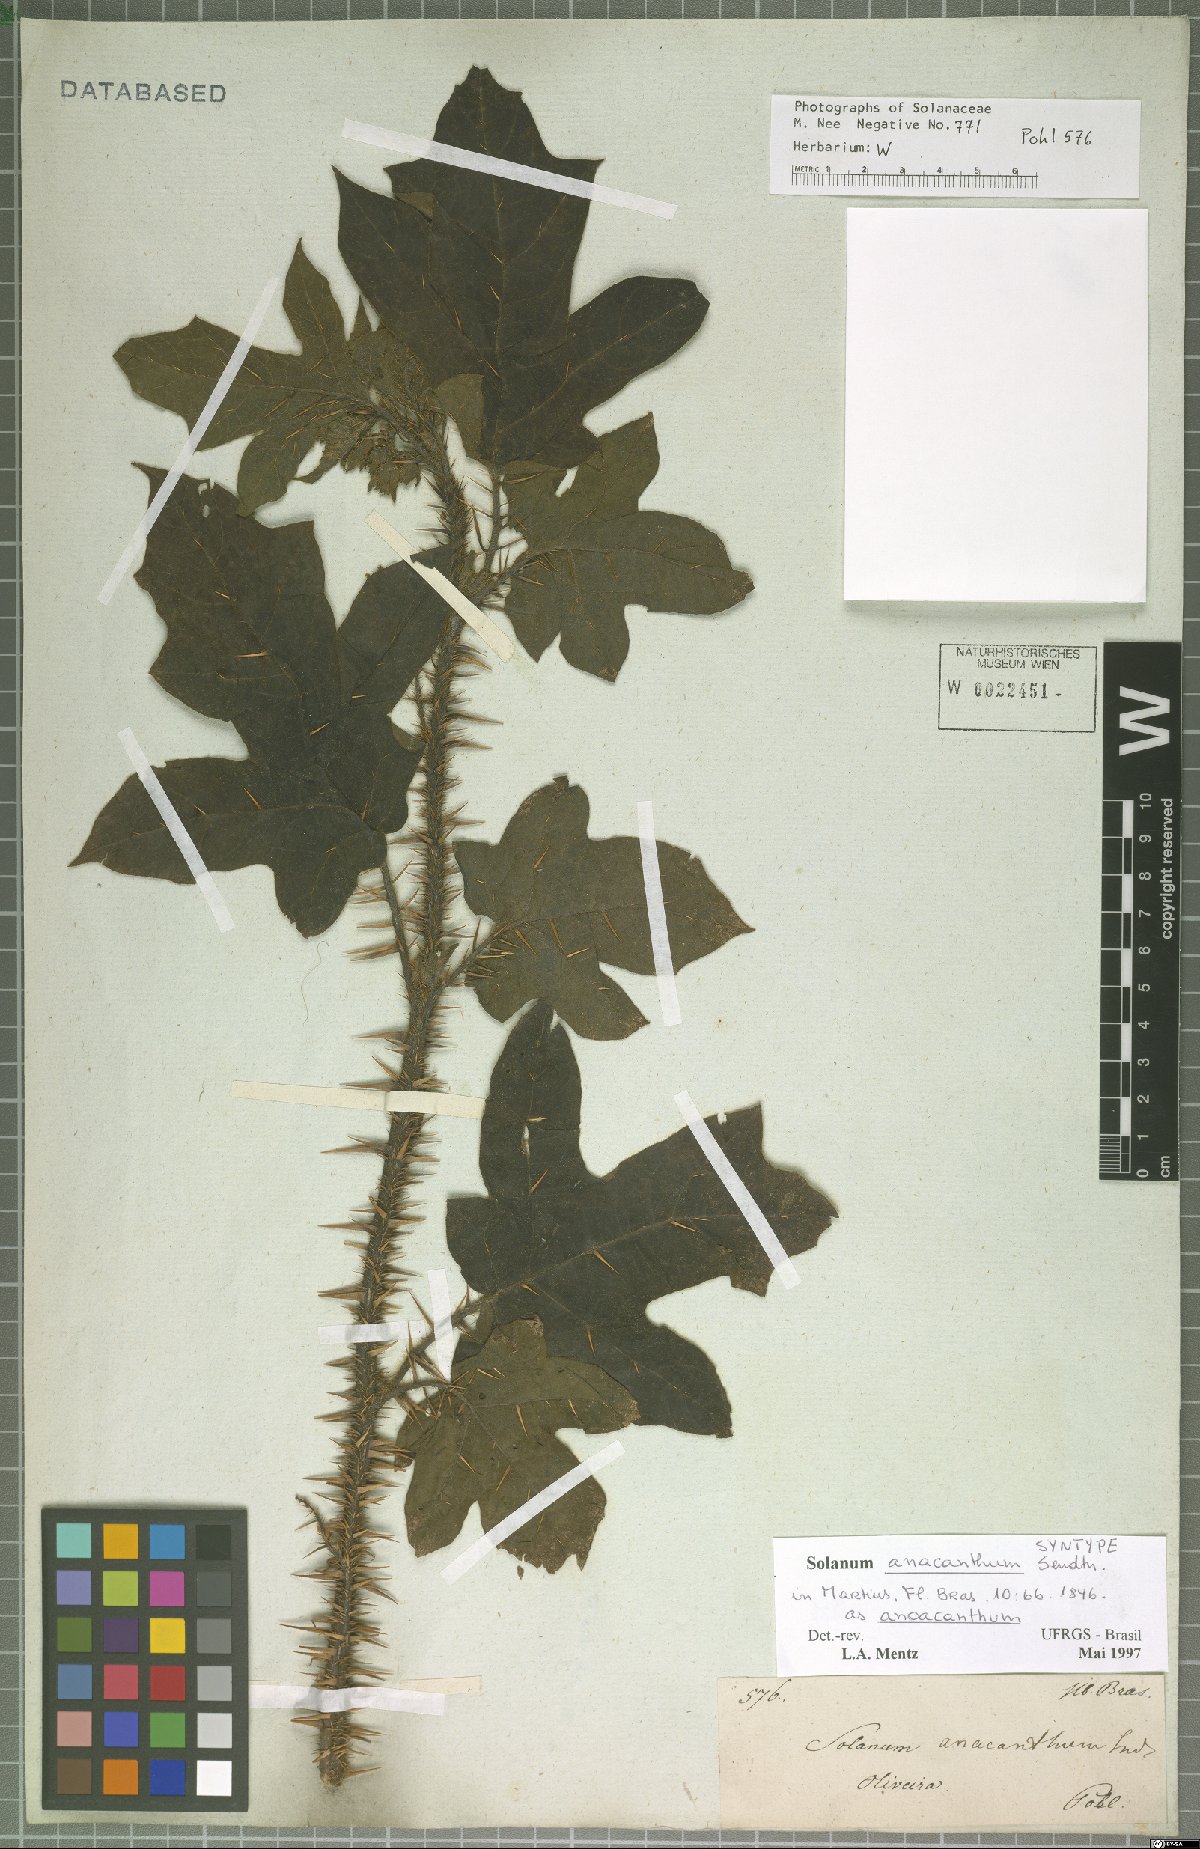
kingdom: Plantae
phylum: Tracheophyta
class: Magnoliopsida
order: Solanales
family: Solanaceae
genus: Solanum
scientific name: Solanum anoacanthum
